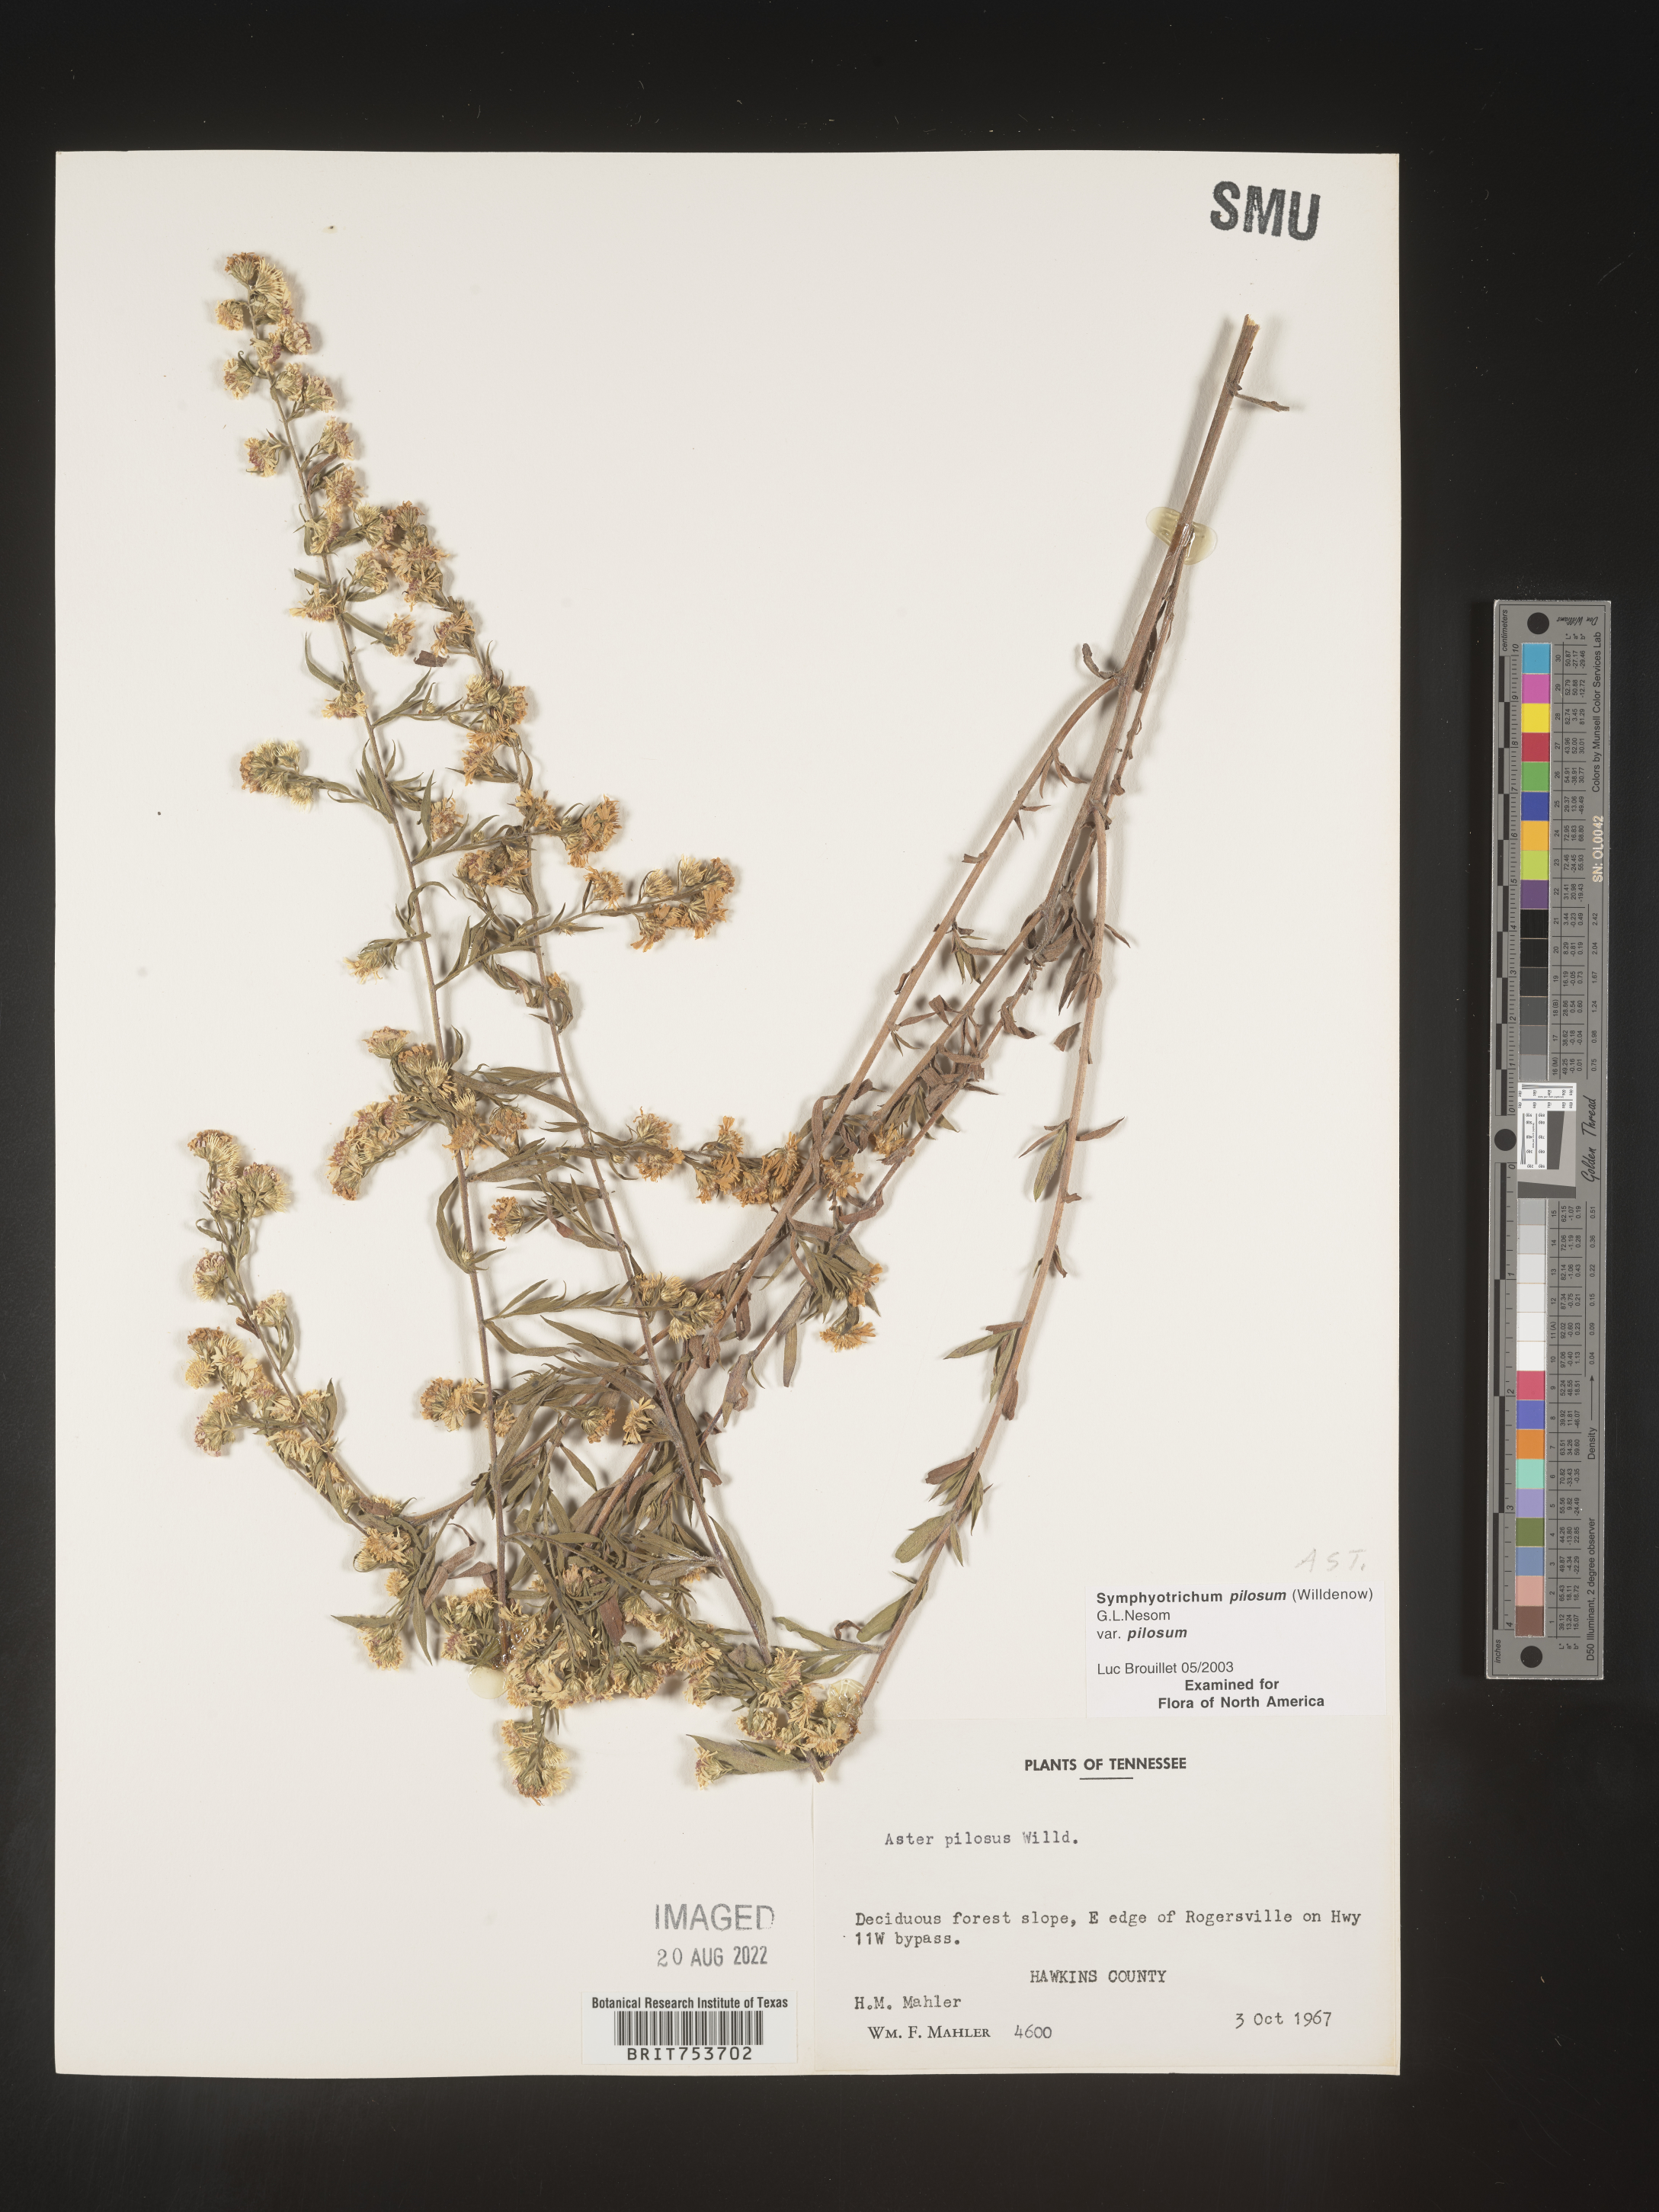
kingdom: Plantae
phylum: Tracheophyta
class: Magnoliopsida
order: Asterales
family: Asteraceae
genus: Symphyotrichum
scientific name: Symphyotrichum pilosum
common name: Awl aster
